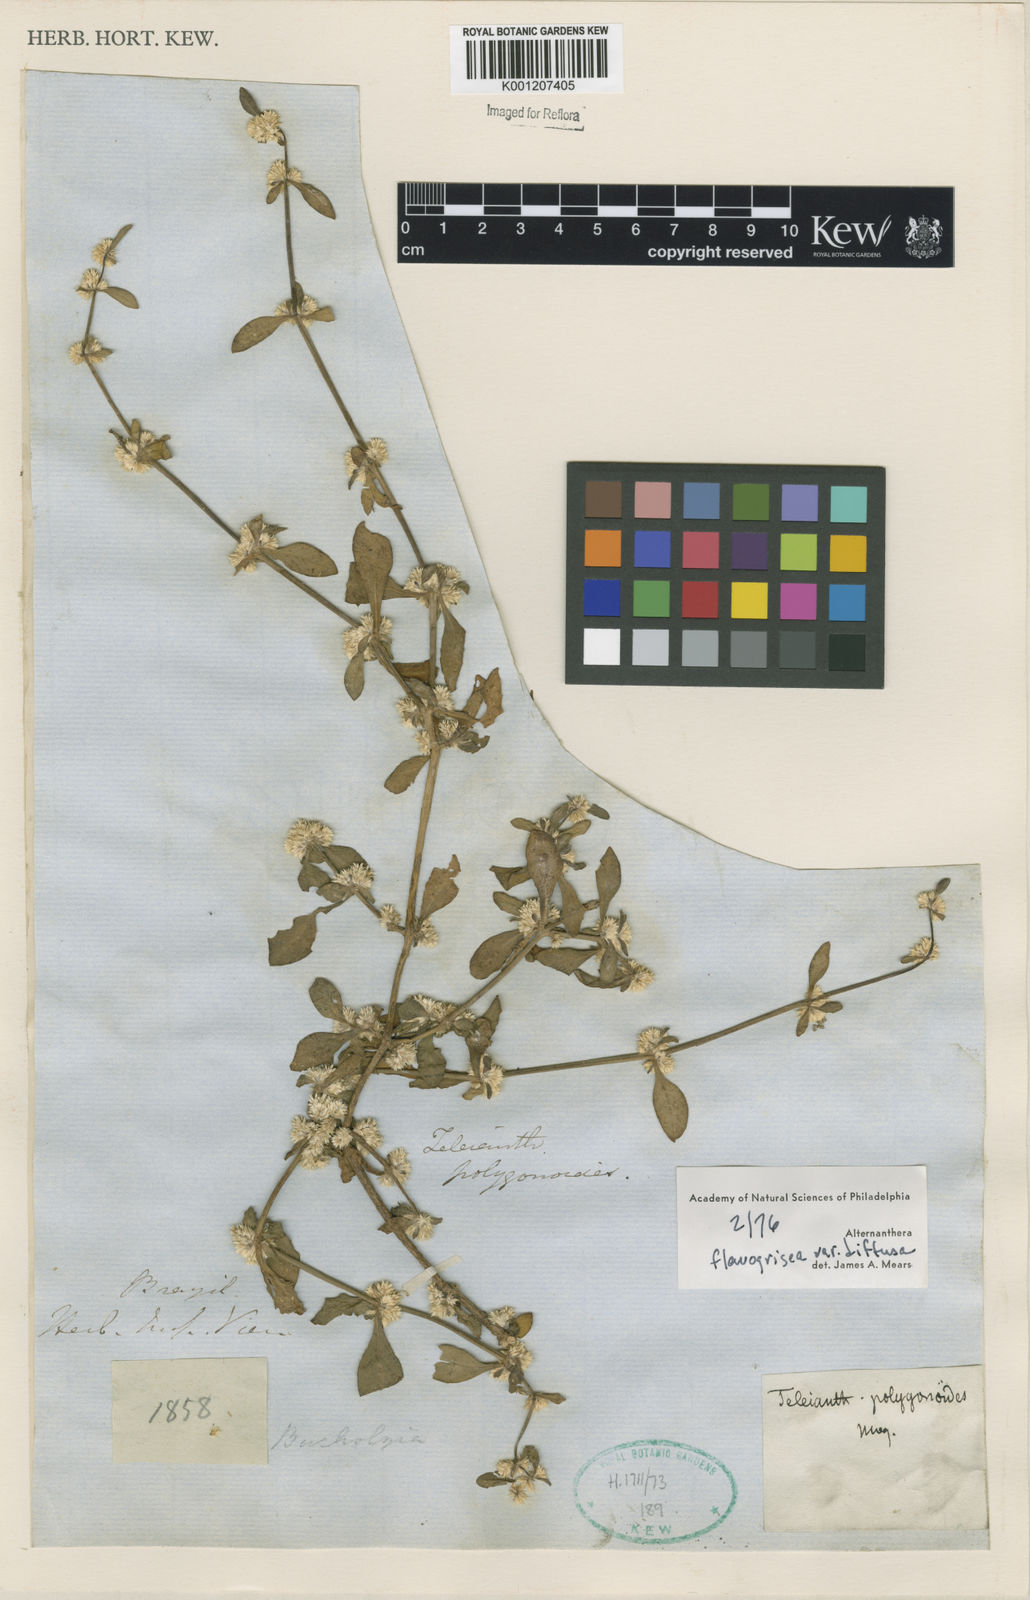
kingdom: Plantae
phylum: Tracheophyta
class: Magnoliopsida
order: Caryophyllales
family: Amaranthaceae
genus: Alternanthera
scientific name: Alternanthera halimifolia
